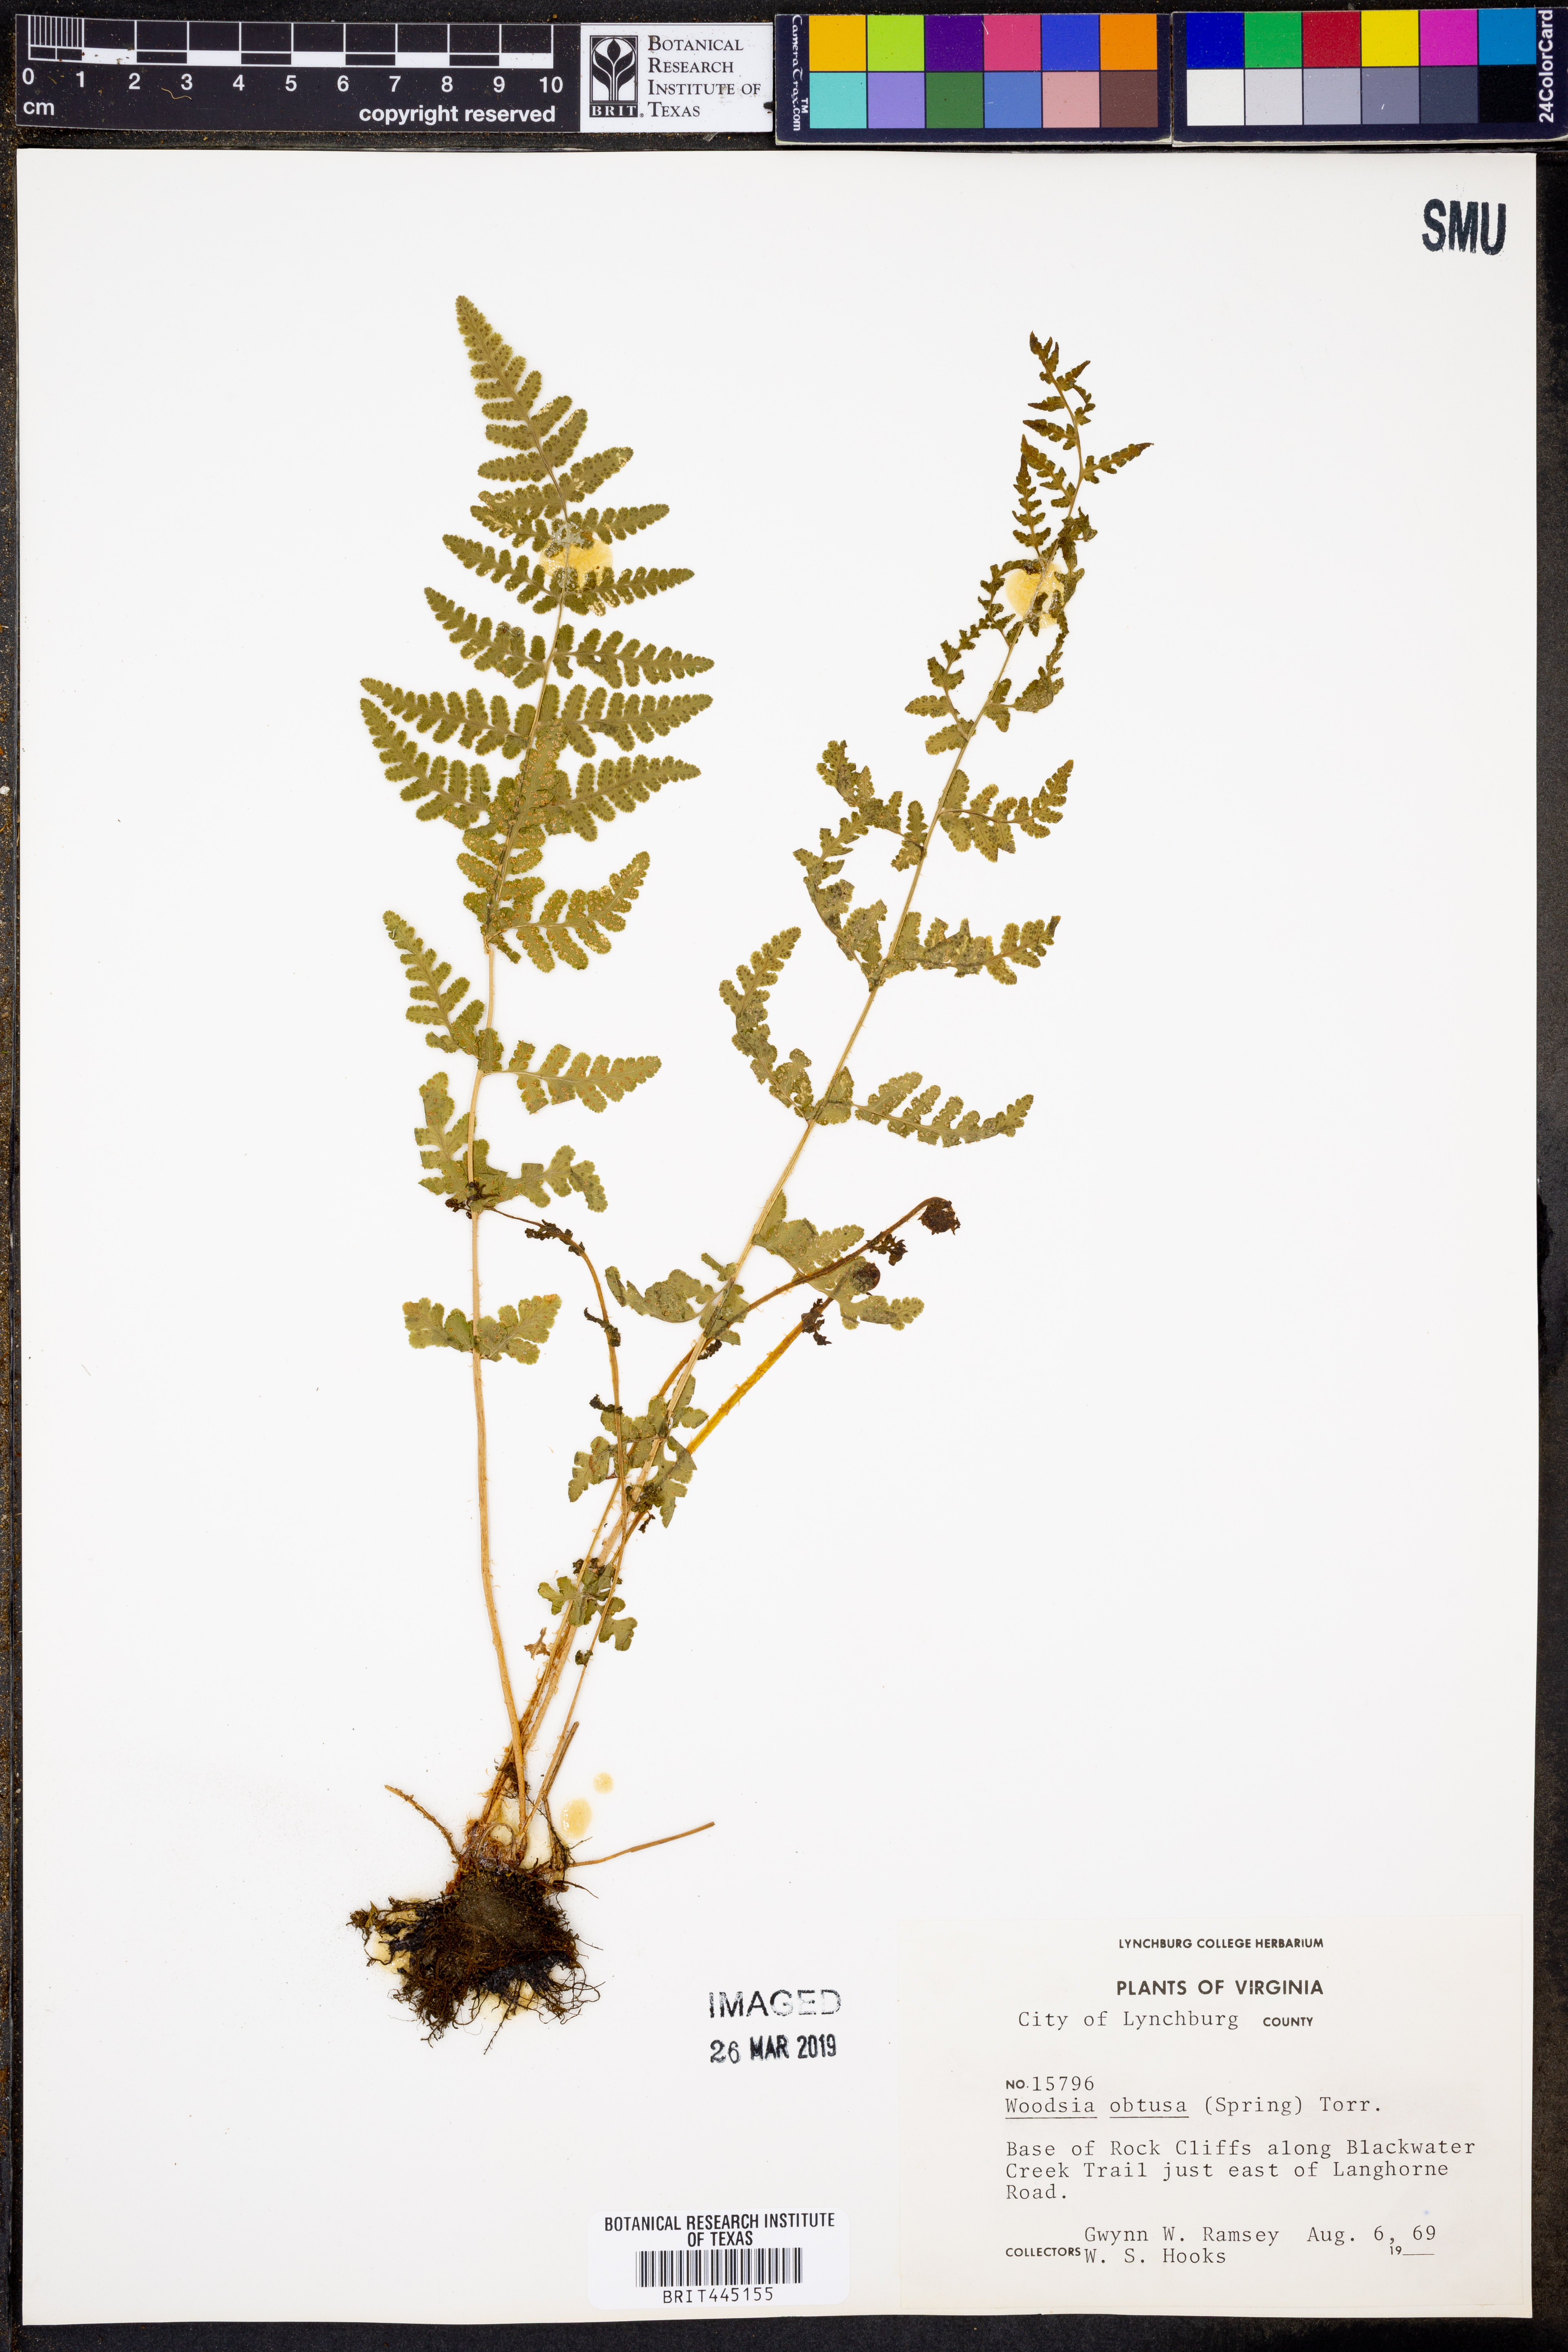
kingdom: Plantae
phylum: Tracheophyta
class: Polypodiopsida
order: Polypodiales
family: Woodsiaceae
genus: Physematium
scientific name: Physematium obtusum
